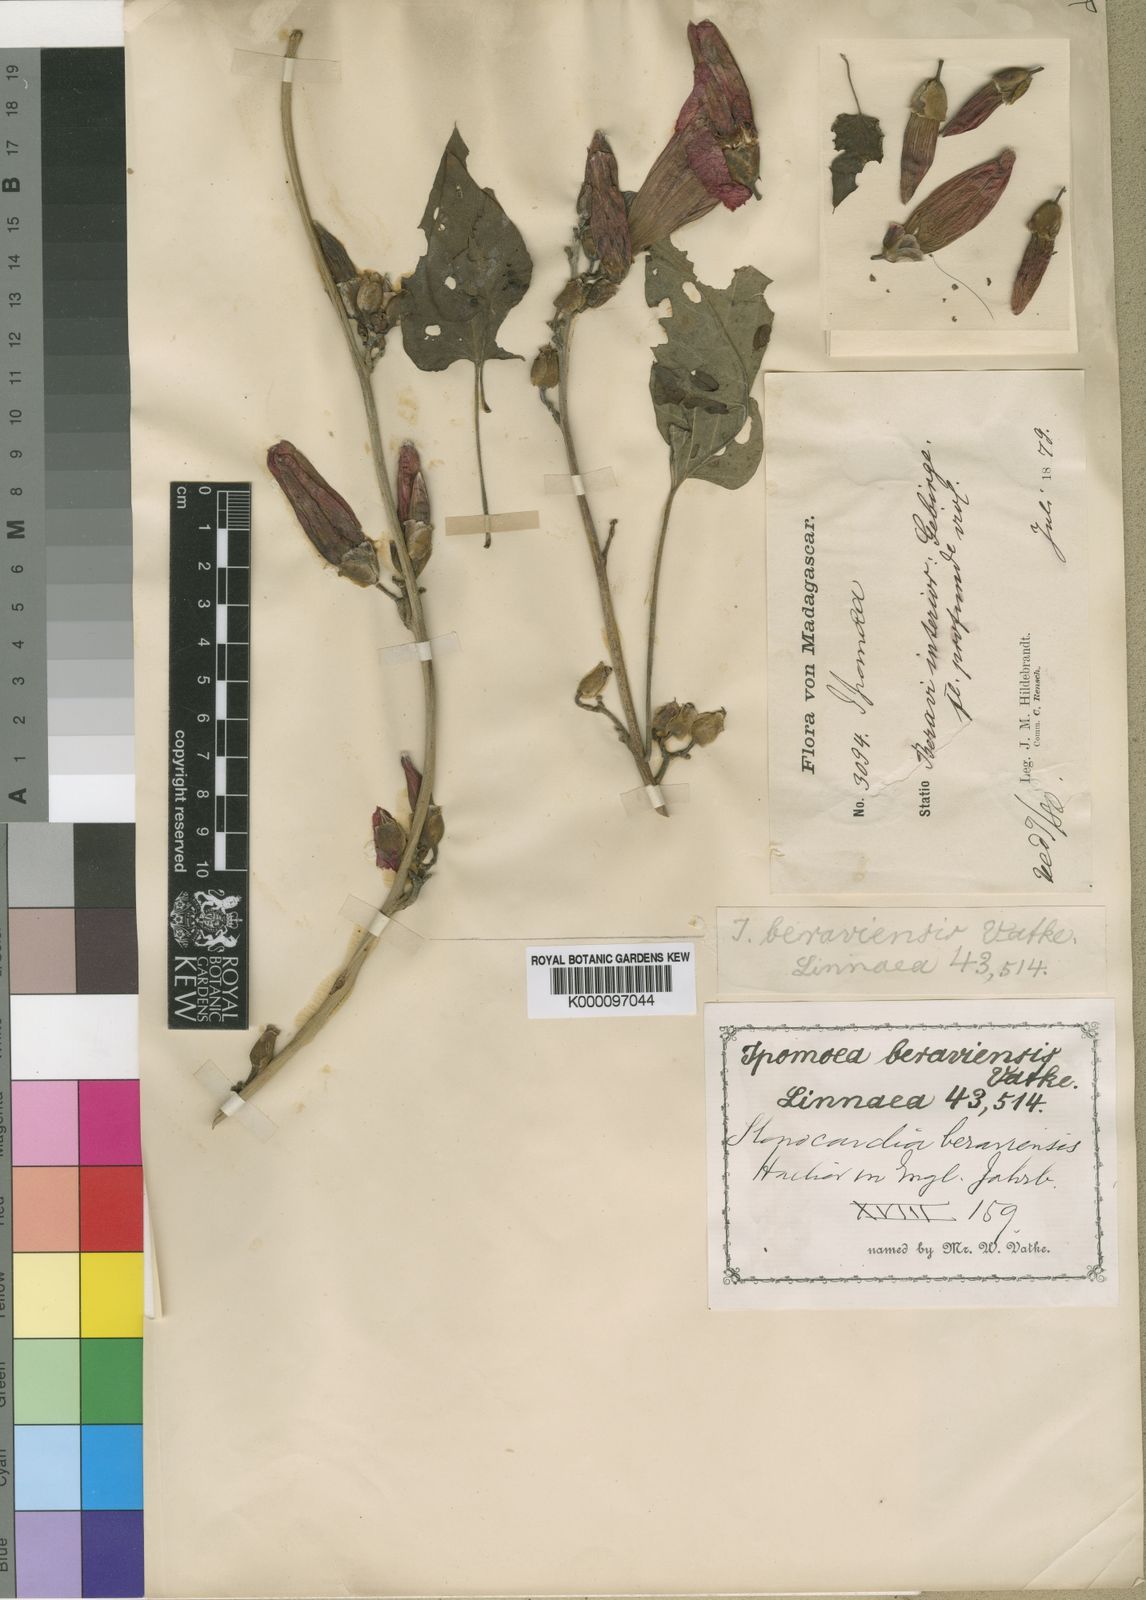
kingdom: Plantae
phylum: Tracheophyta
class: Magnoliopsida
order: Solanales
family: Convolvulaceae
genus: Stictocardia
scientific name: Stictocardia beraviensis
